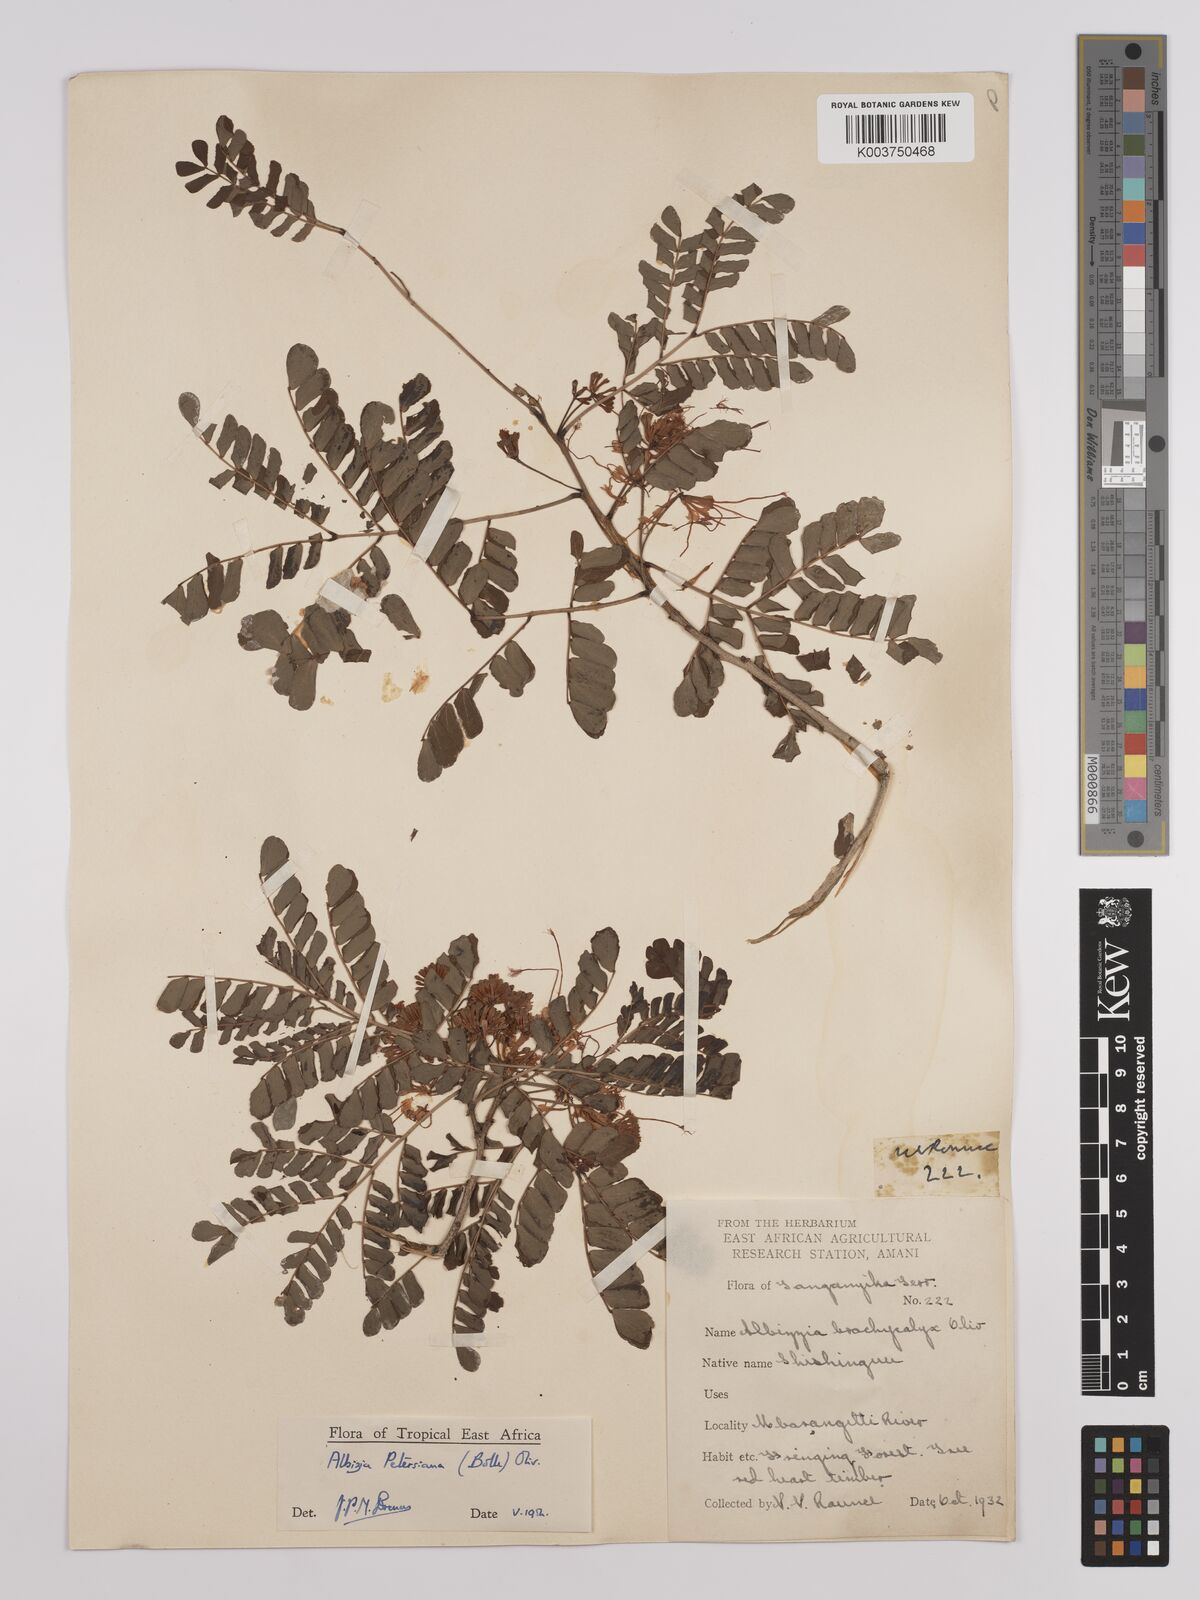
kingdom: Plantae
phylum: Tracheophyta
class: Magnoliopsida
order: Fabales
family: Fabaceae
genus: Albizia
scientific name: Albizia petersiana
